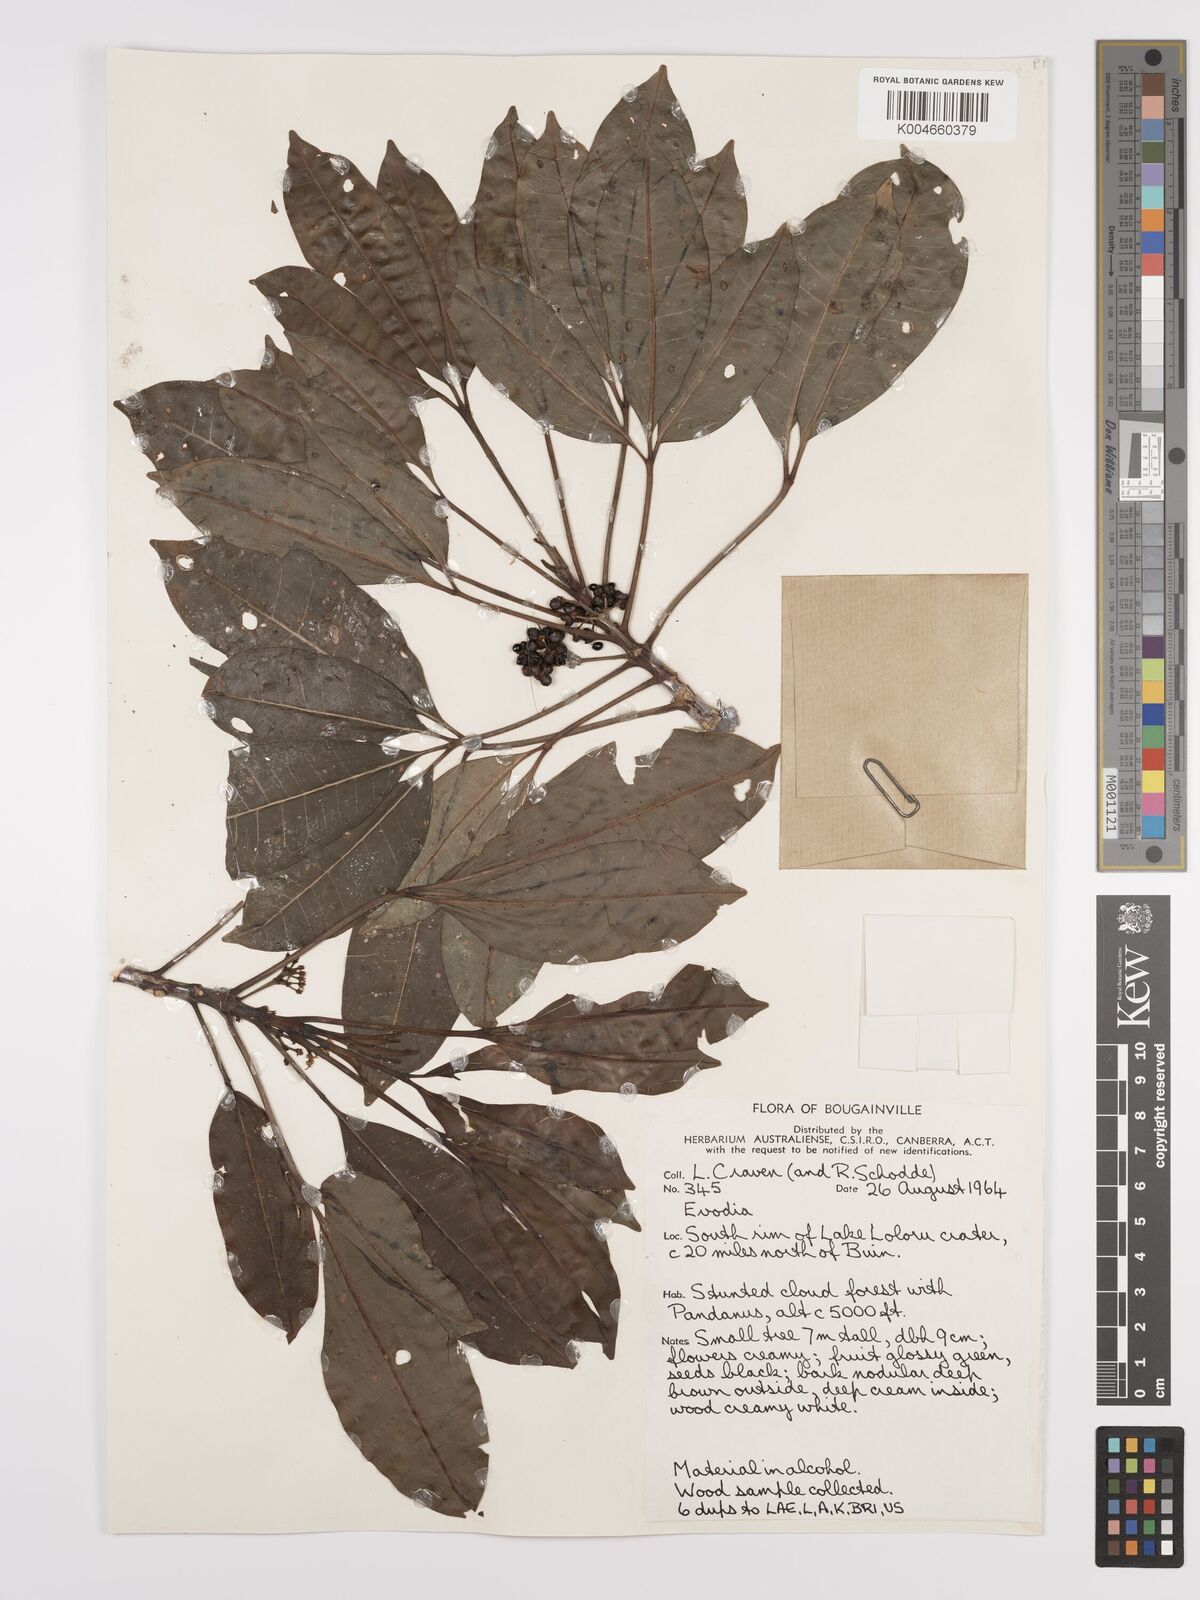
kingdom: Plantae
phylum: Tracheophyta
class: Magnoliopsida
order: Sapindales
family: Rutaceae
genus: Euodia
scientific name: Euodia
